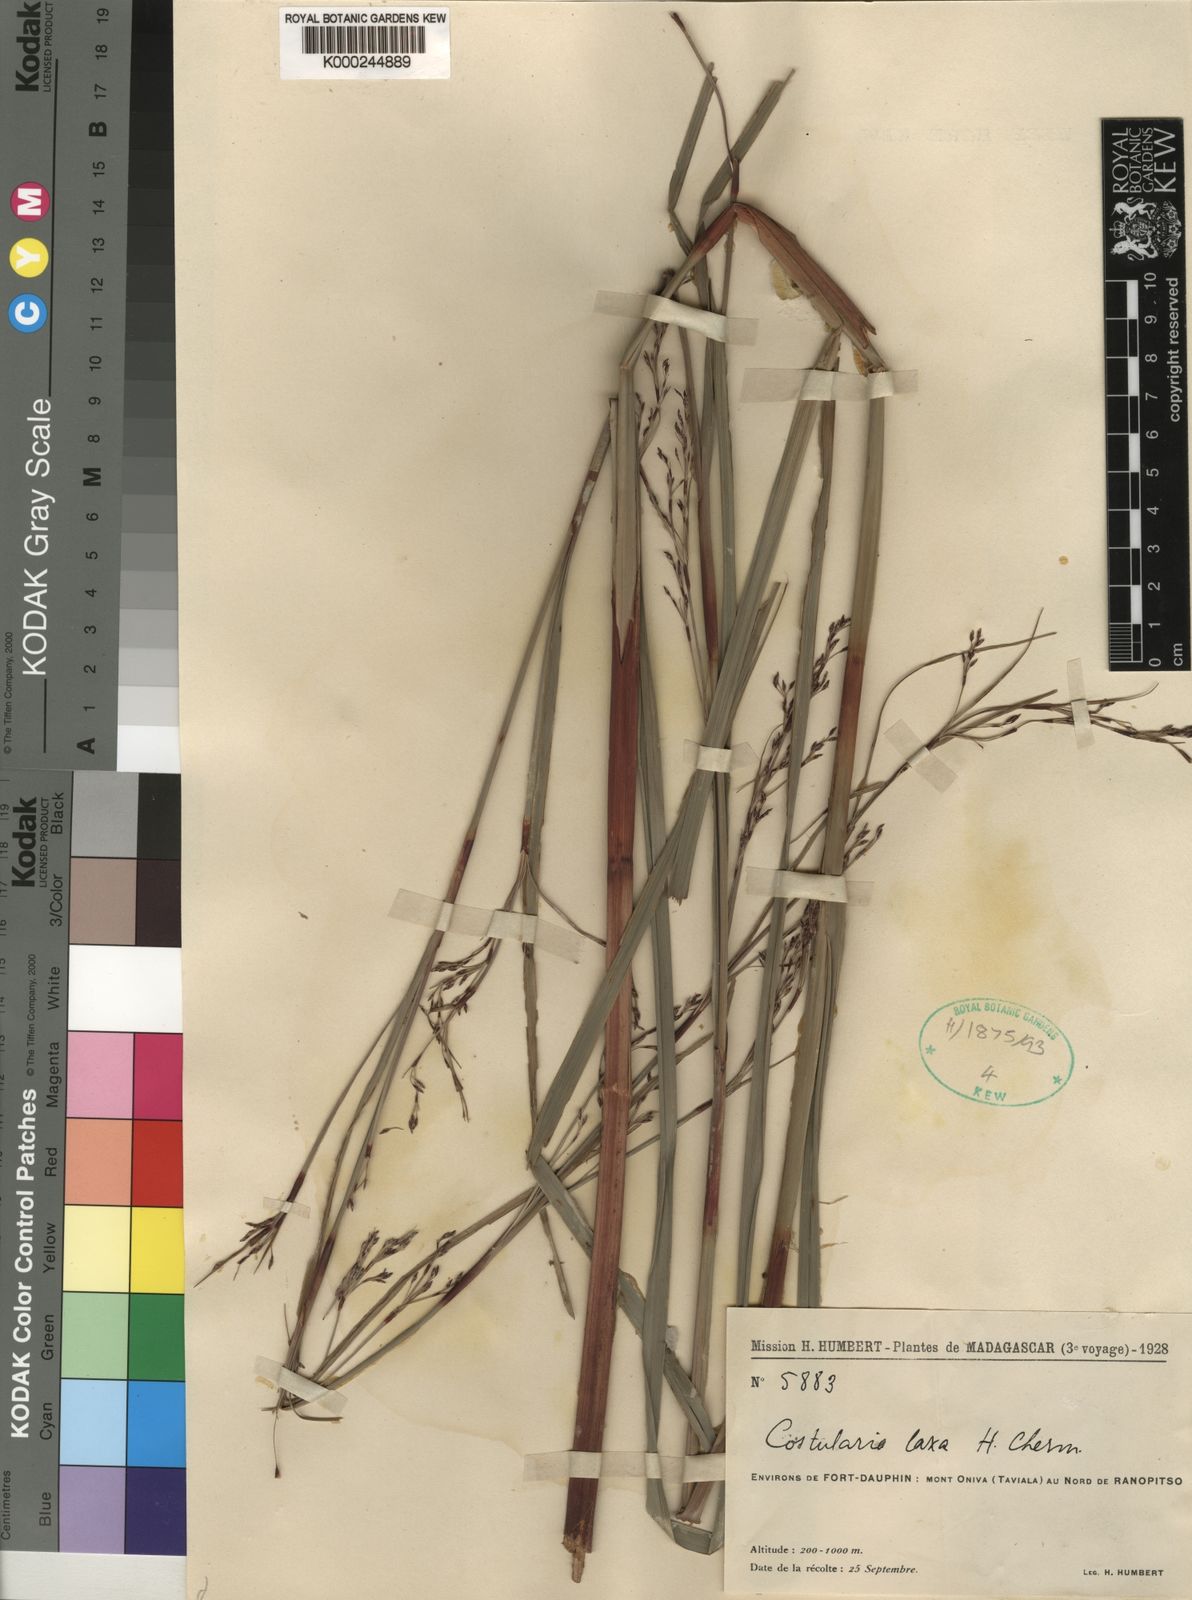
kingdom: Plantae
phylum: Tracheophyta
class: Liliopsida
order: Poales
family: Cyperaceae
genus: Costularia
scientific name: Costularia purpurea
